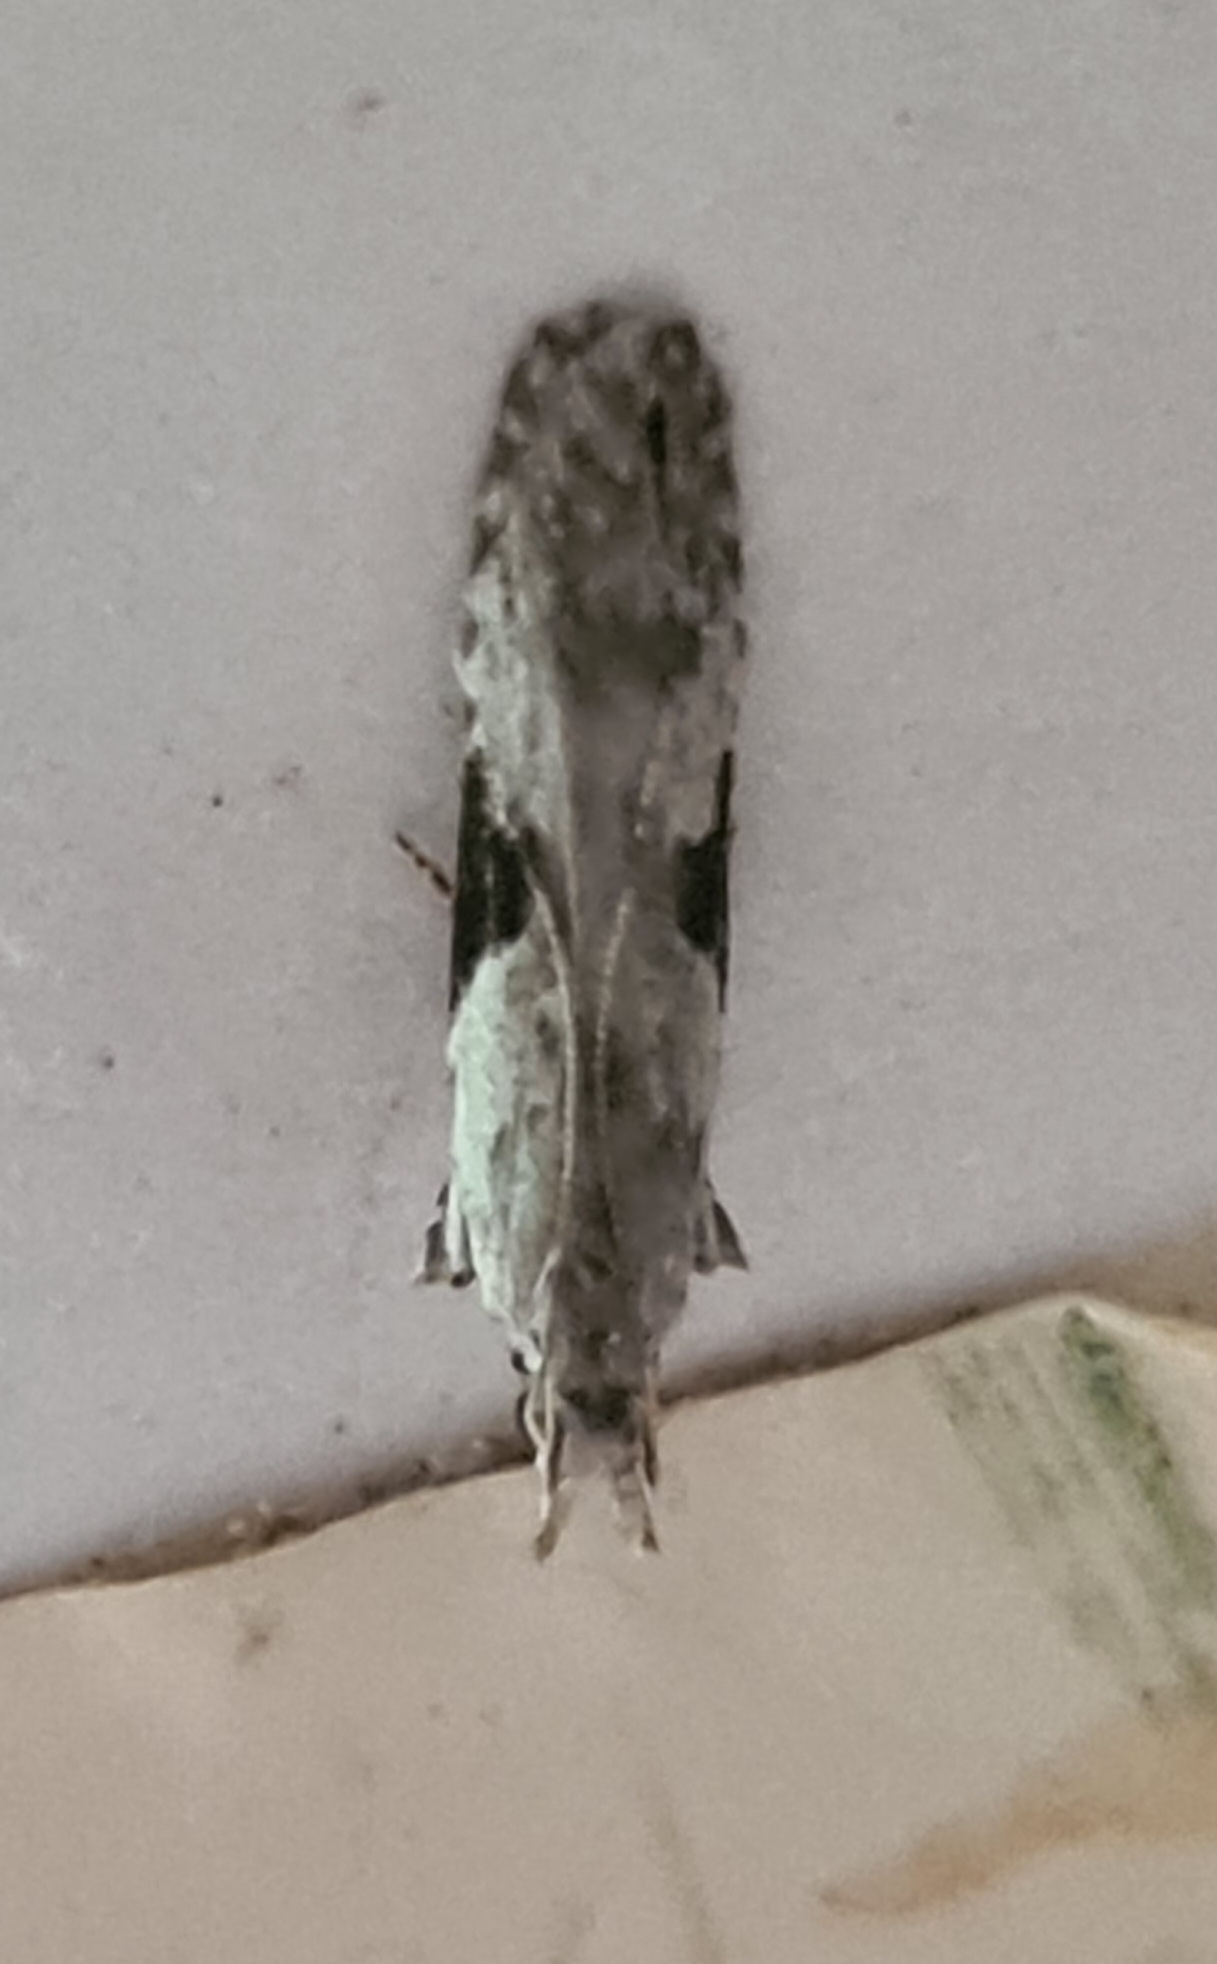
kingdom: Animalia
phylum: Arthropoda
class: Insecta
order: Lepidoptera
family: Gelechiidae
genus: Hypatima
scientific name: Hypatima rhomboidella
